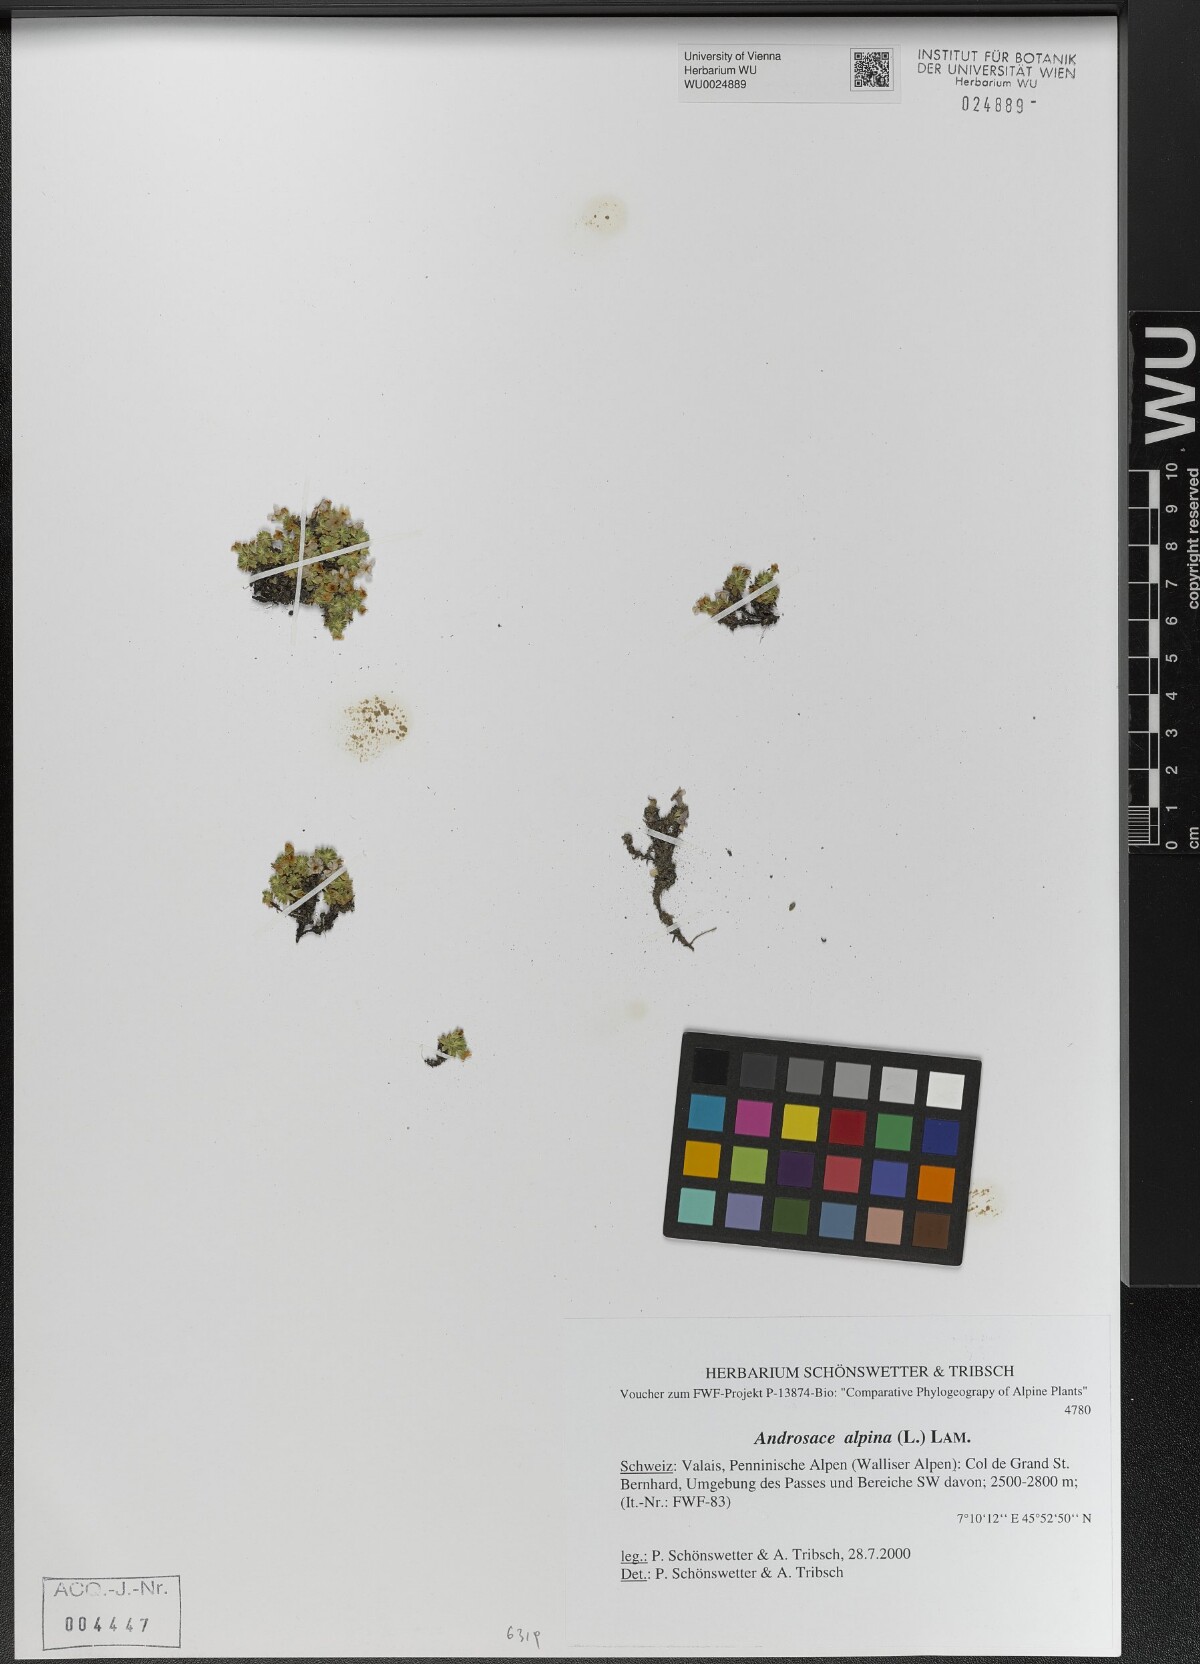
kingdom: Plantae
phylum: Tracheophyta
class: Magnoliopsida
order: Ericales
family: Primulaceae
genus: Androsace
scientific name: Androsace alpina
